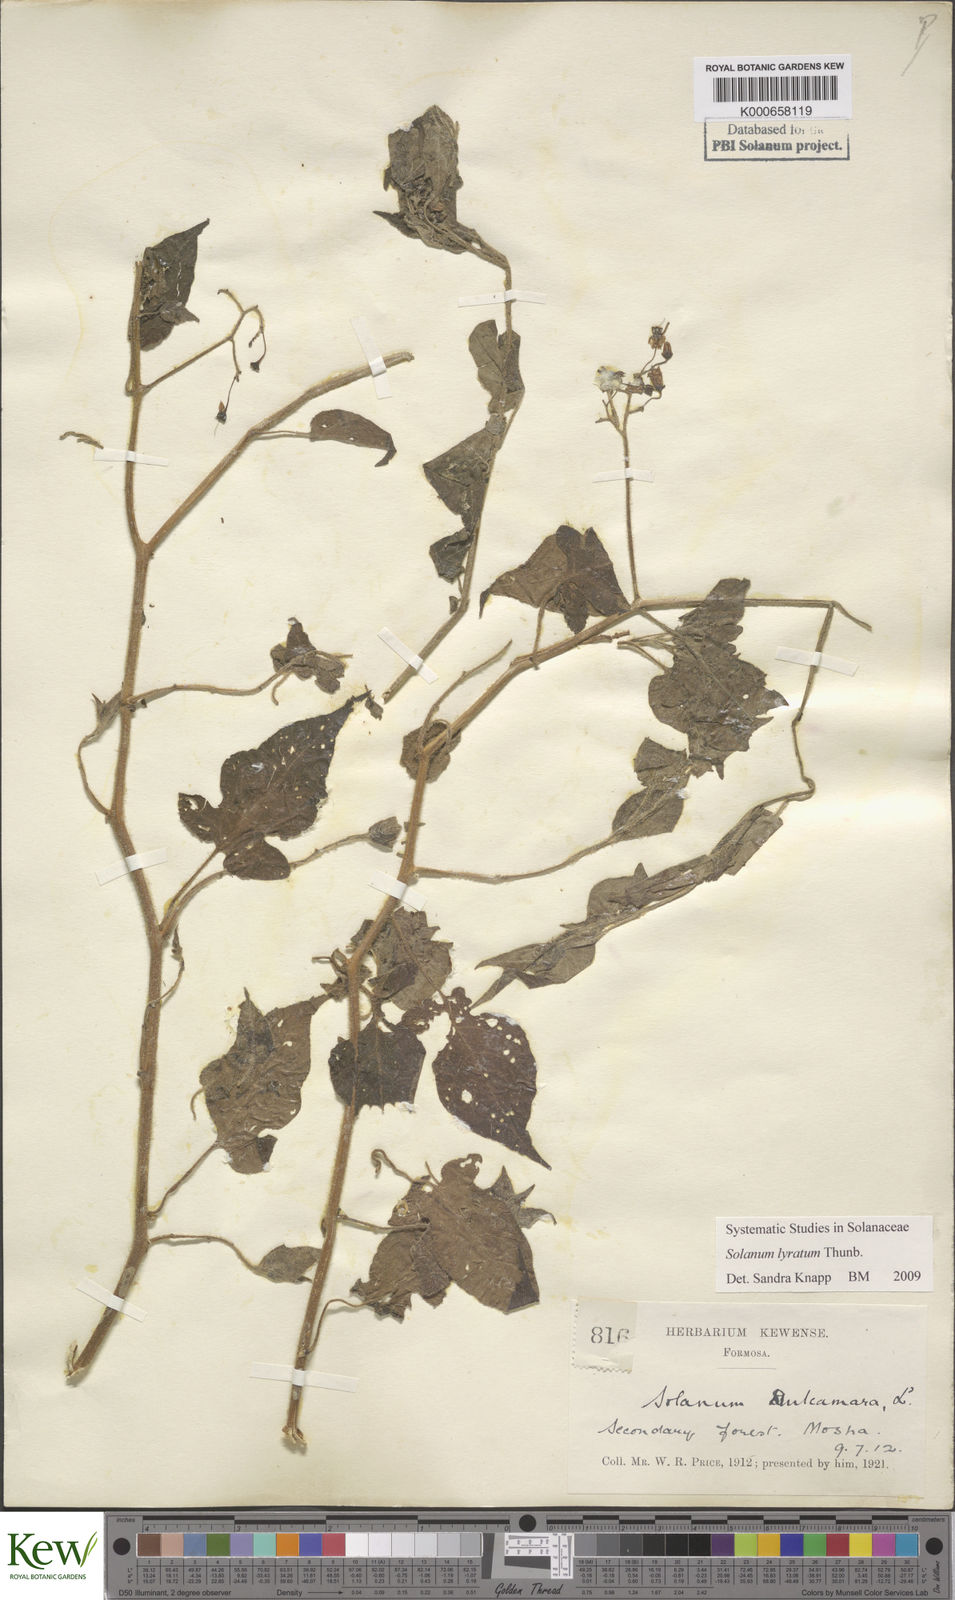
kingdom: Plantae
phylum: Tracheophyta
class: Magnoliopsida
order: Solanales
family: Solanaceae
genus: Solanum
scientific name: Solanum lyratum
